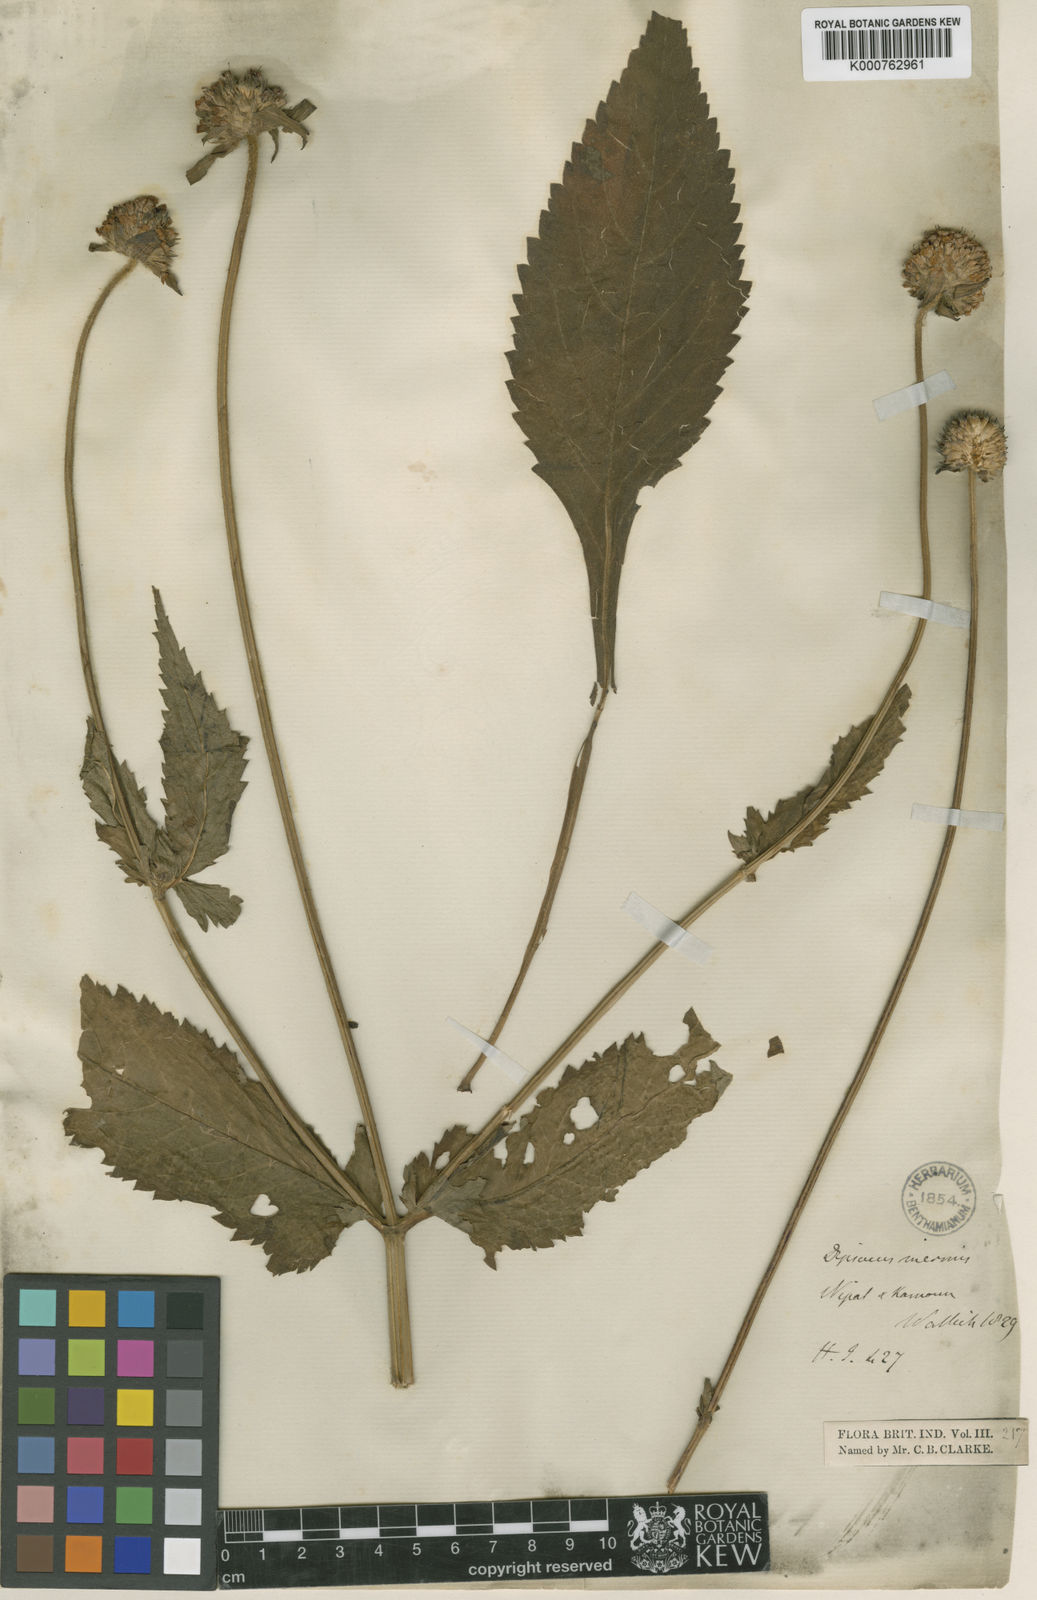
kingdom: Plantae
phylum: Tracheophyta
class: Magnoliopsida
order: Dipsacales
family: Caprifoliaceae
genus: Dipsacus
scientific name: Dipsacus inermis
